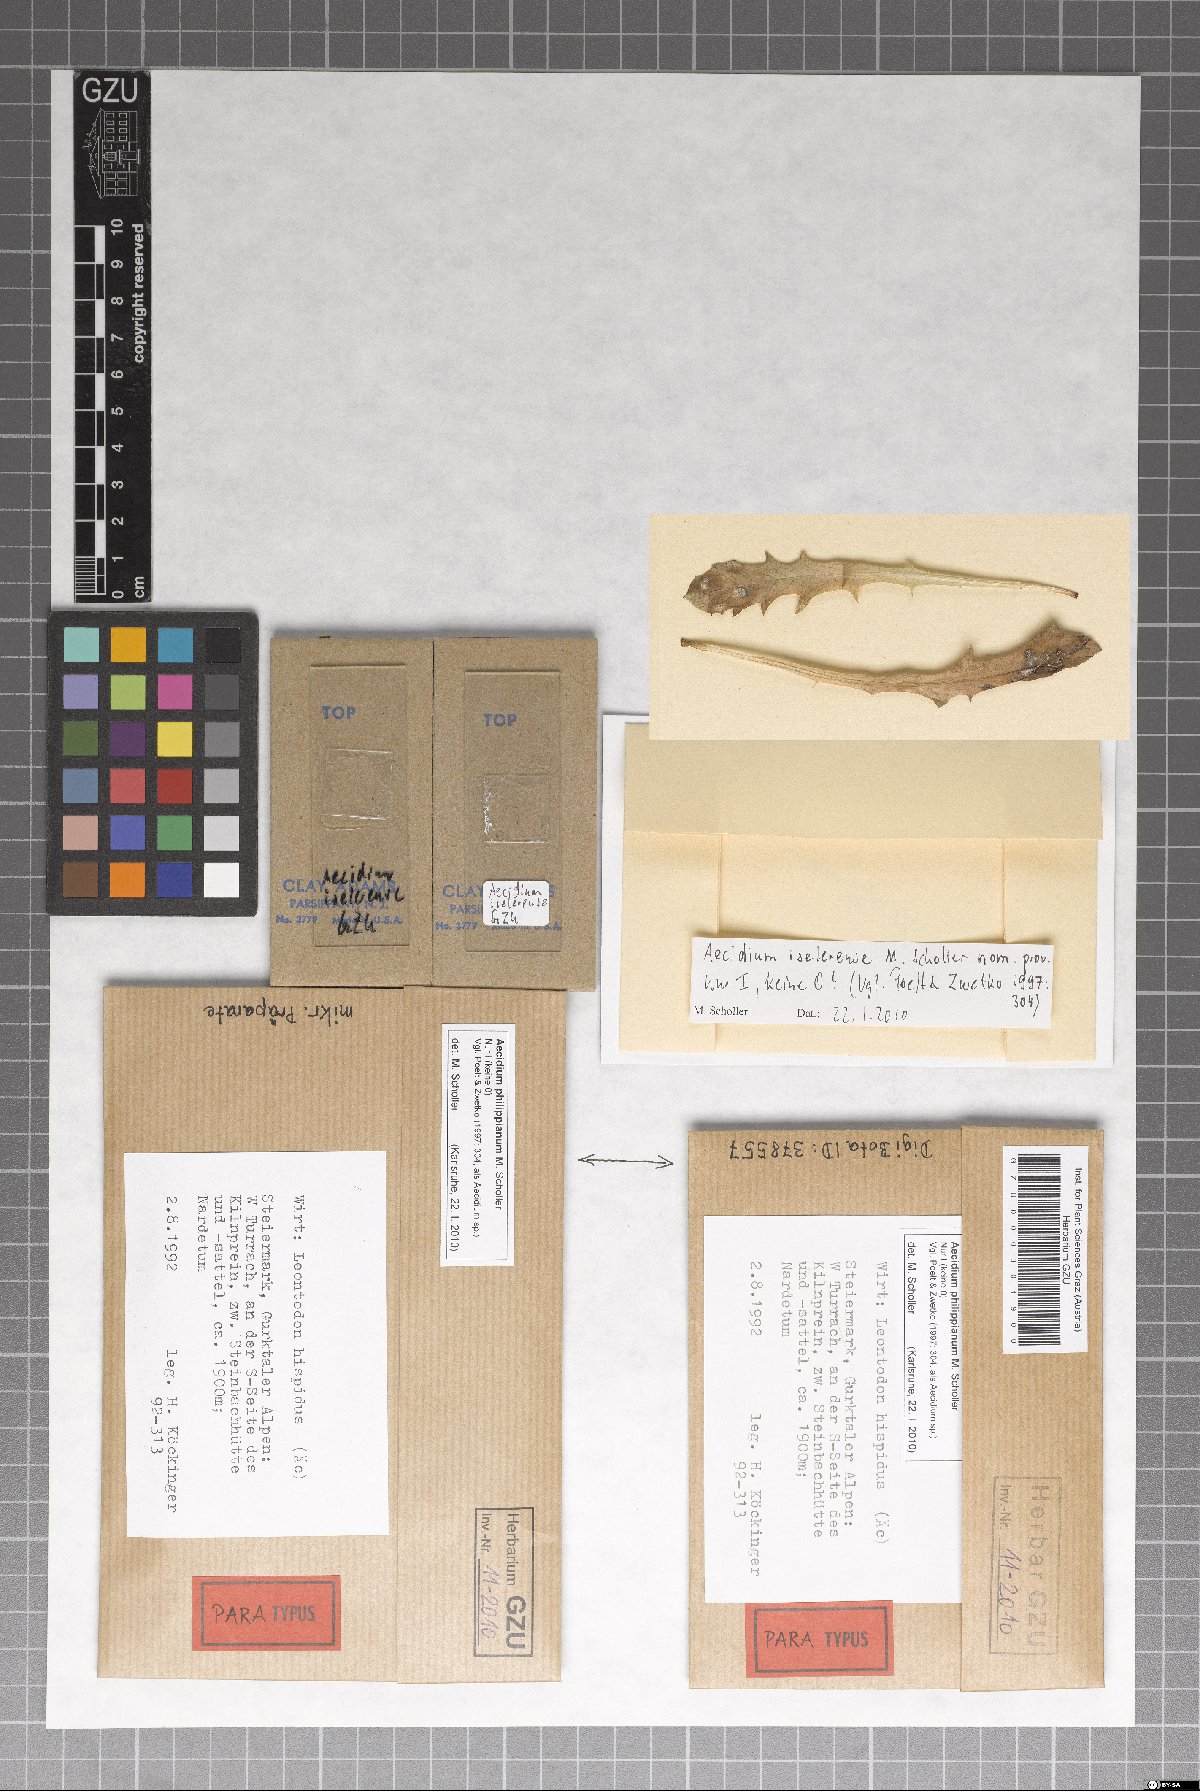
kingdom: Fungi
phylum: Basidiomycota
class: Pucciniomycetes
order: Pucciniales
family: Pucciniaceae
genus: Aecidium
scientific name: Aecidium philippianum
